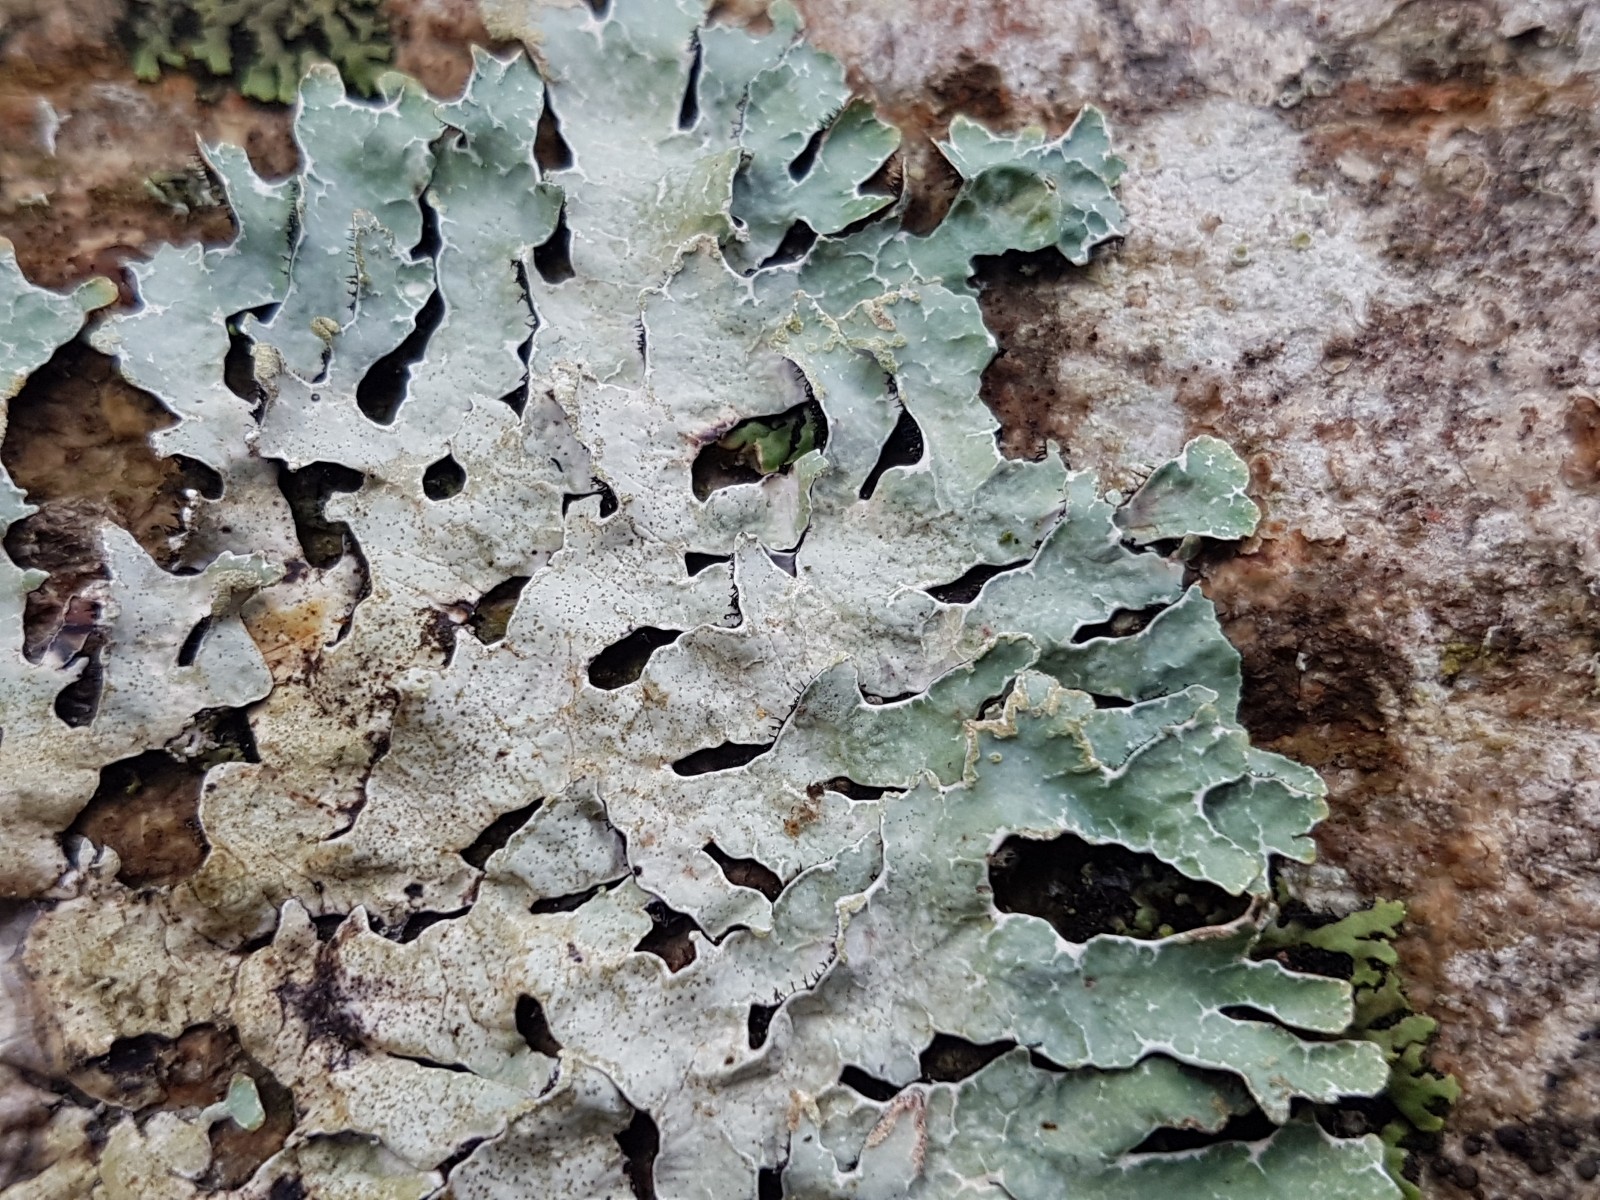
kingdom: Fungi
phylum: Ascomycota
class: Lecanoromycetes
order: Lecanorales
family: Parmeliaceae
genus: Parmelia
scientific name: Parmelia sulcata
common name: rynket skållav
